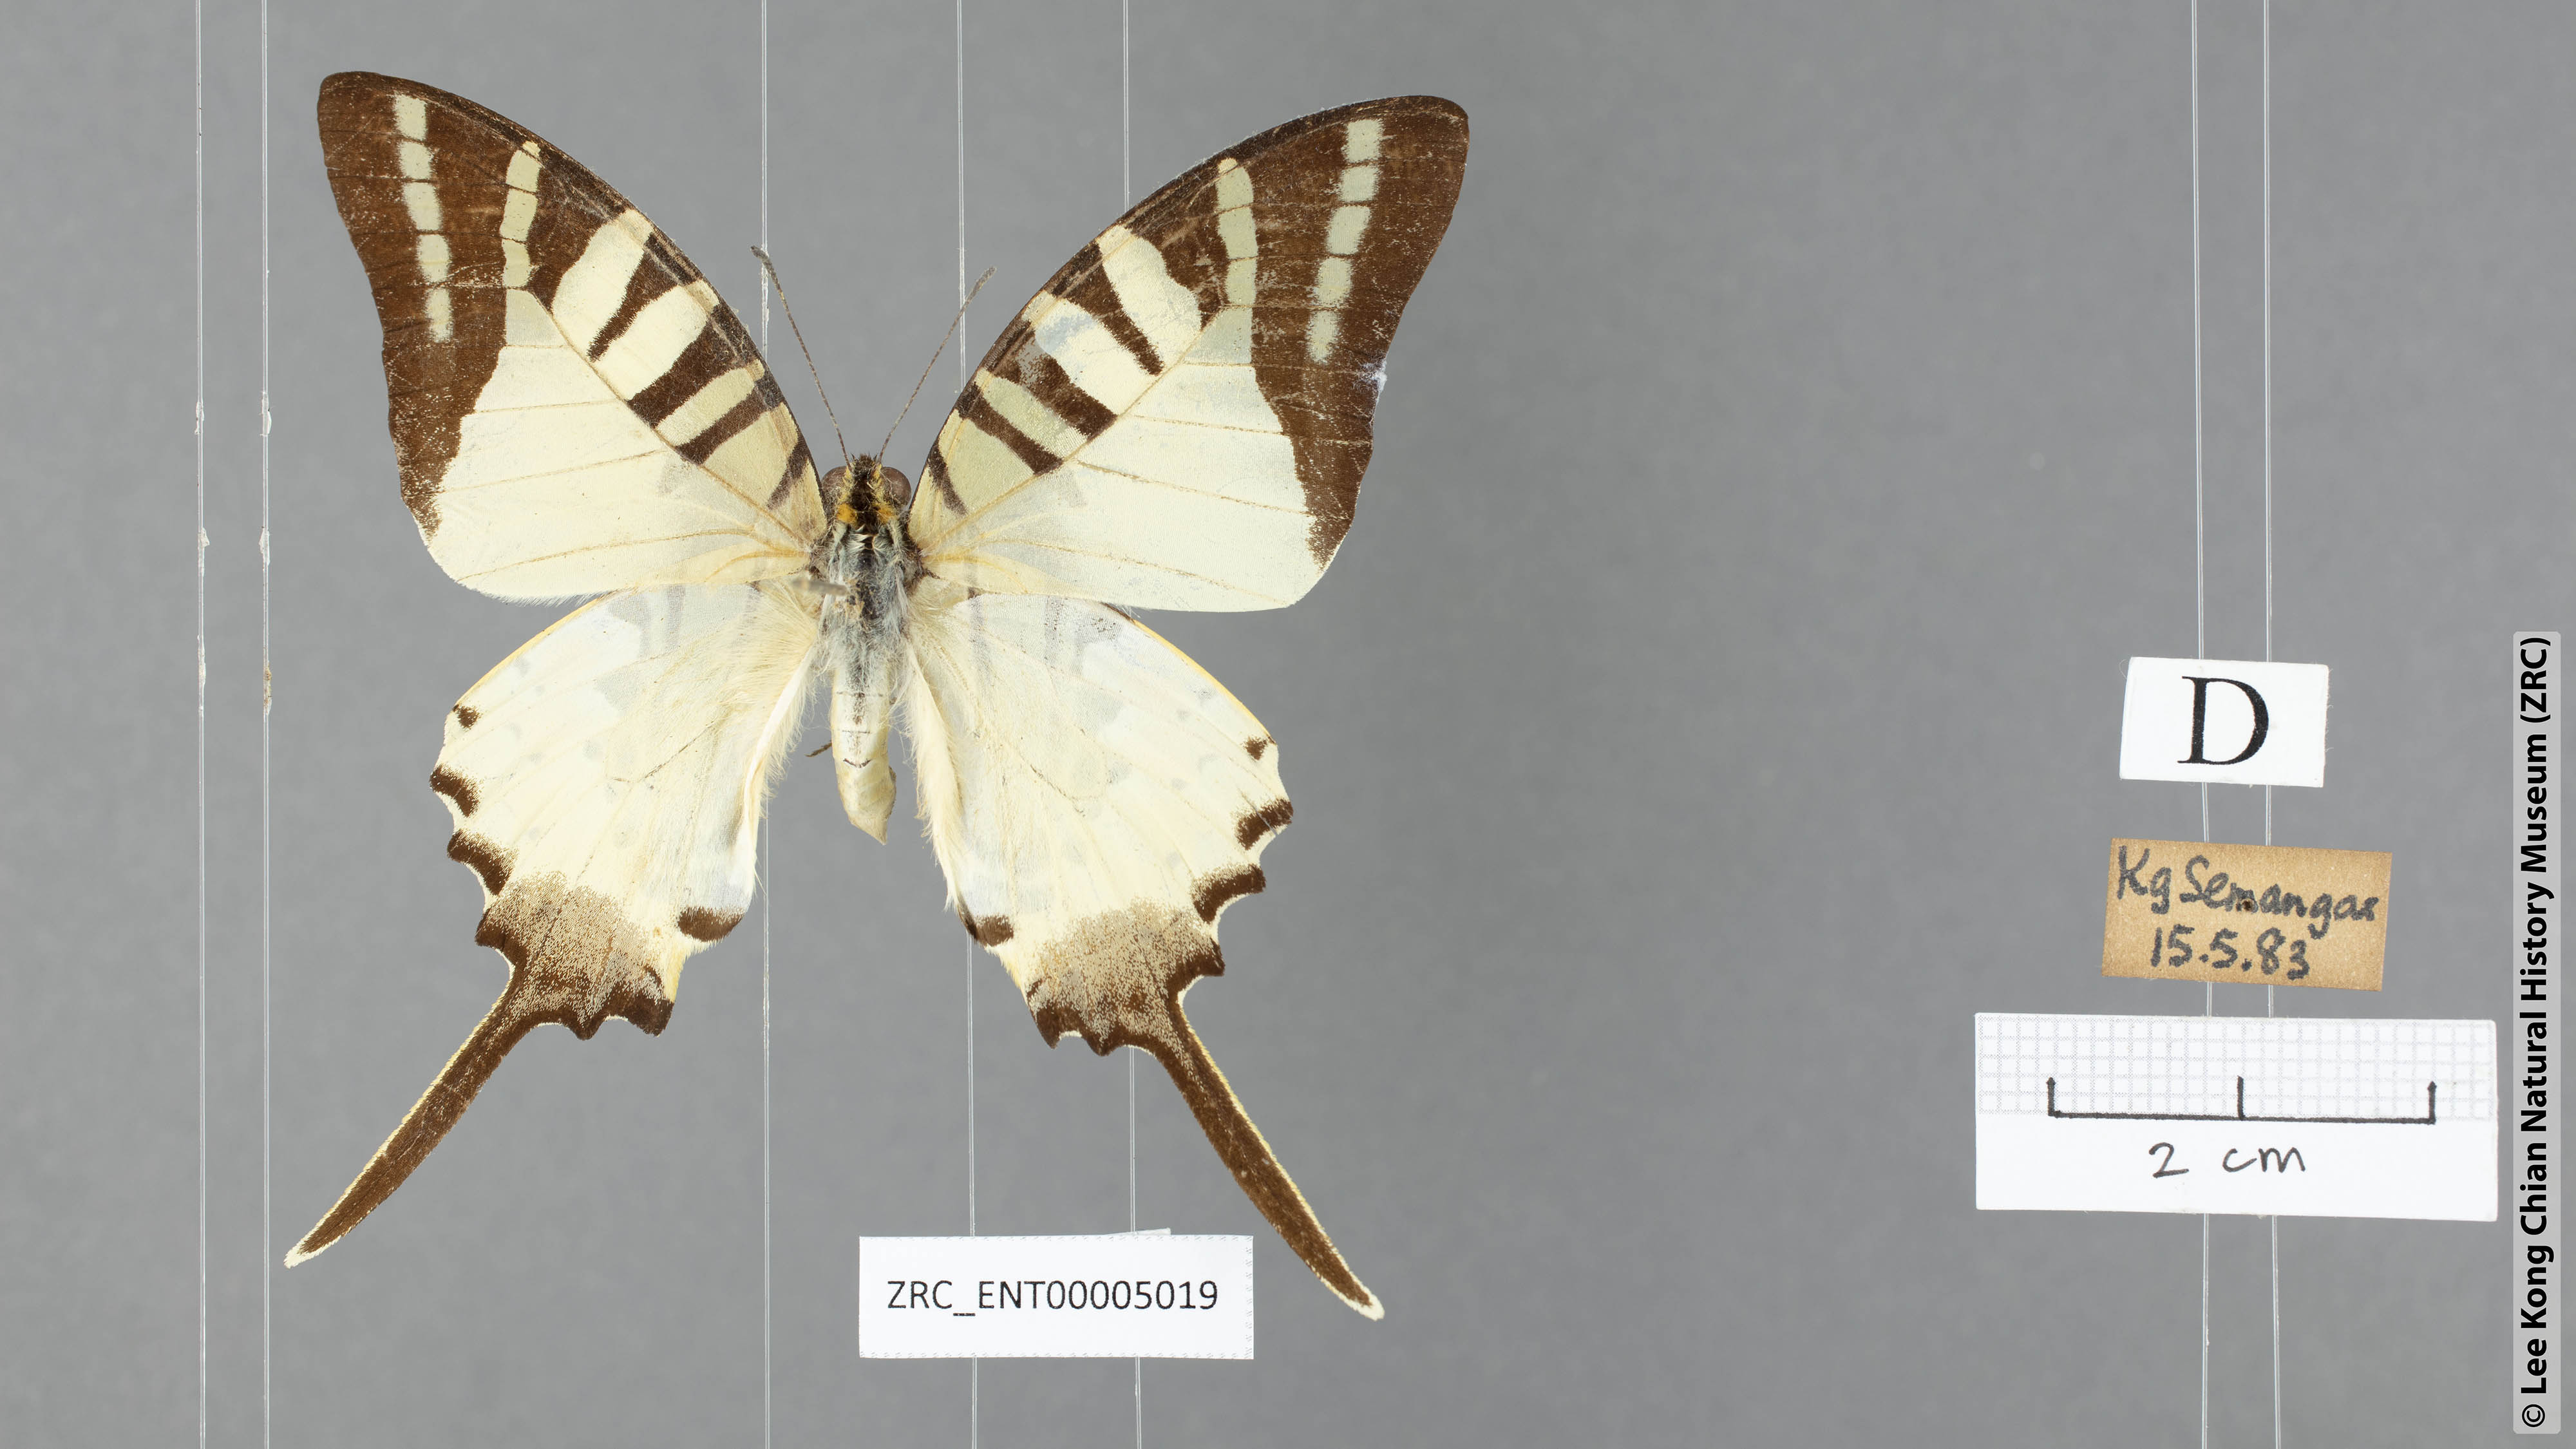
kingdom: Animalia
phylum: Arthropoda
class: Insecta
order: Lepidoptera
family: Papilionidae
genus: Graphium
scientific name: Graphium antiphates
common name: Fivebar swordtail
